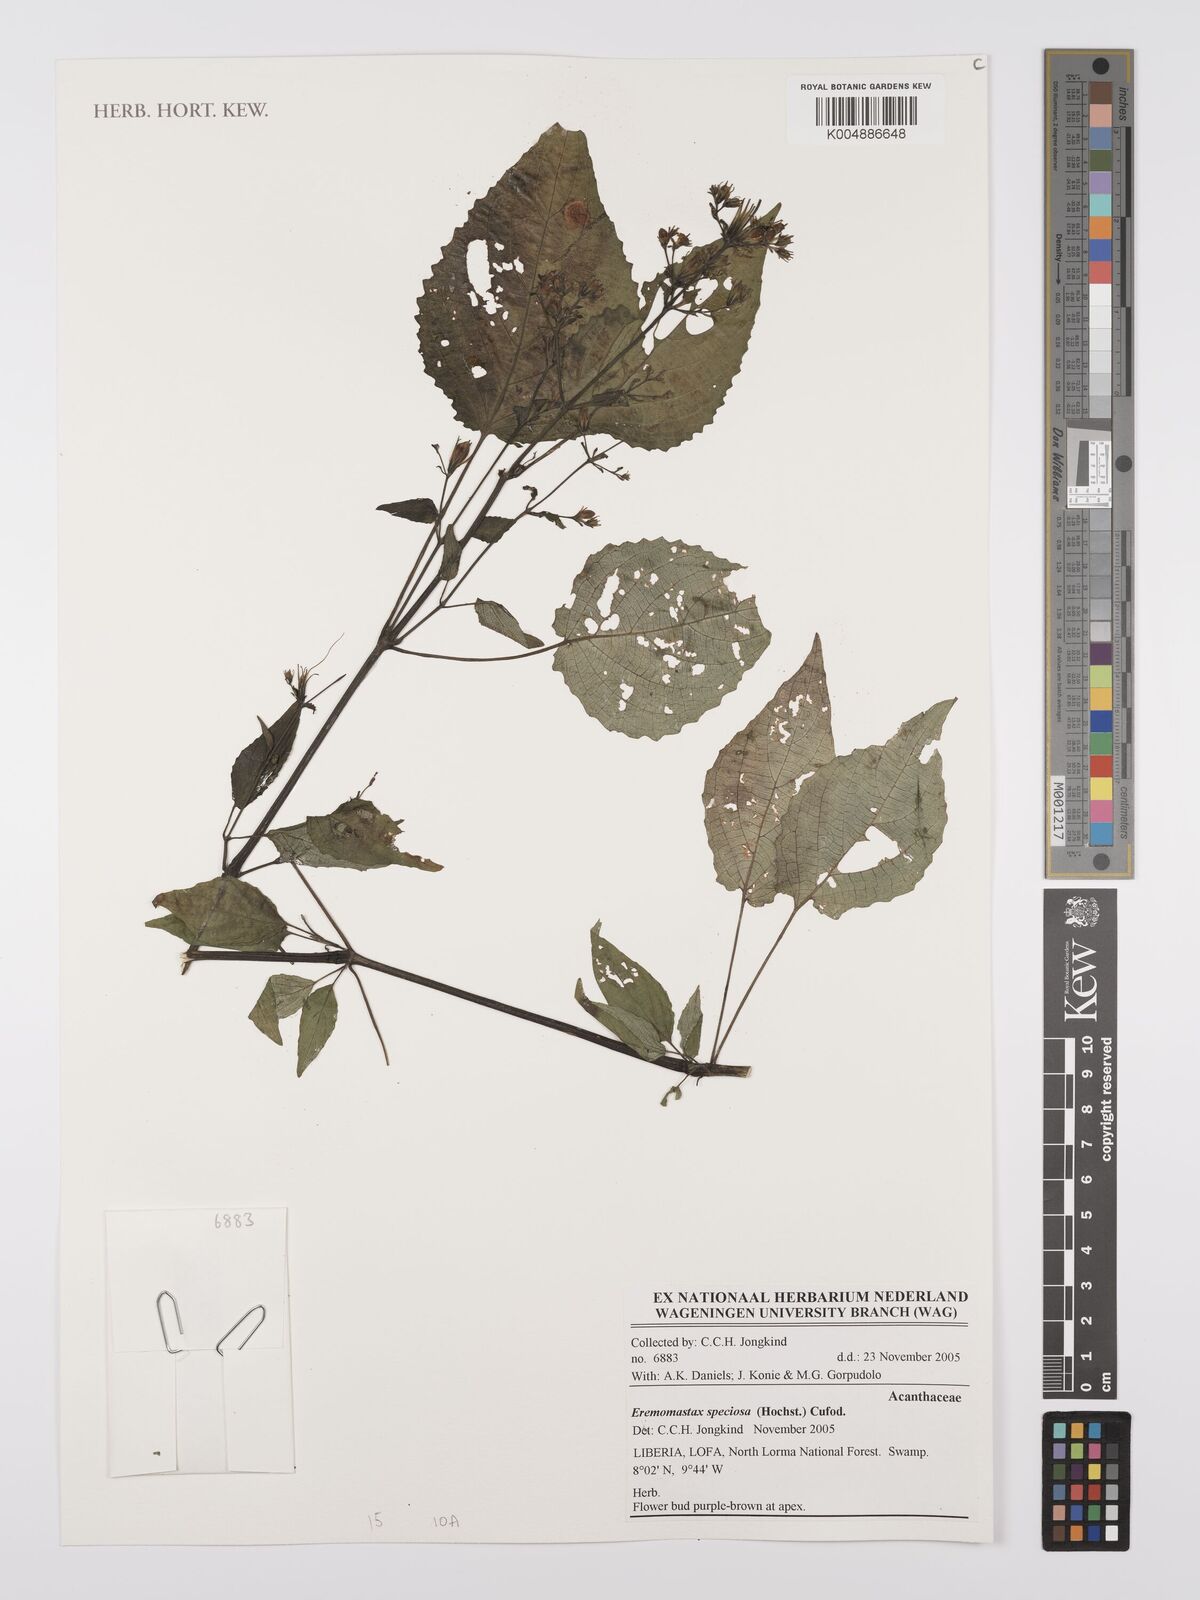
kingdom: Plantae
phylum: Tracheophyta
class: Magnoliopsida
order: Lamiales
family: Acanthaceae
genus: Eremomastax
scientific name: Eremomastax speciosa
